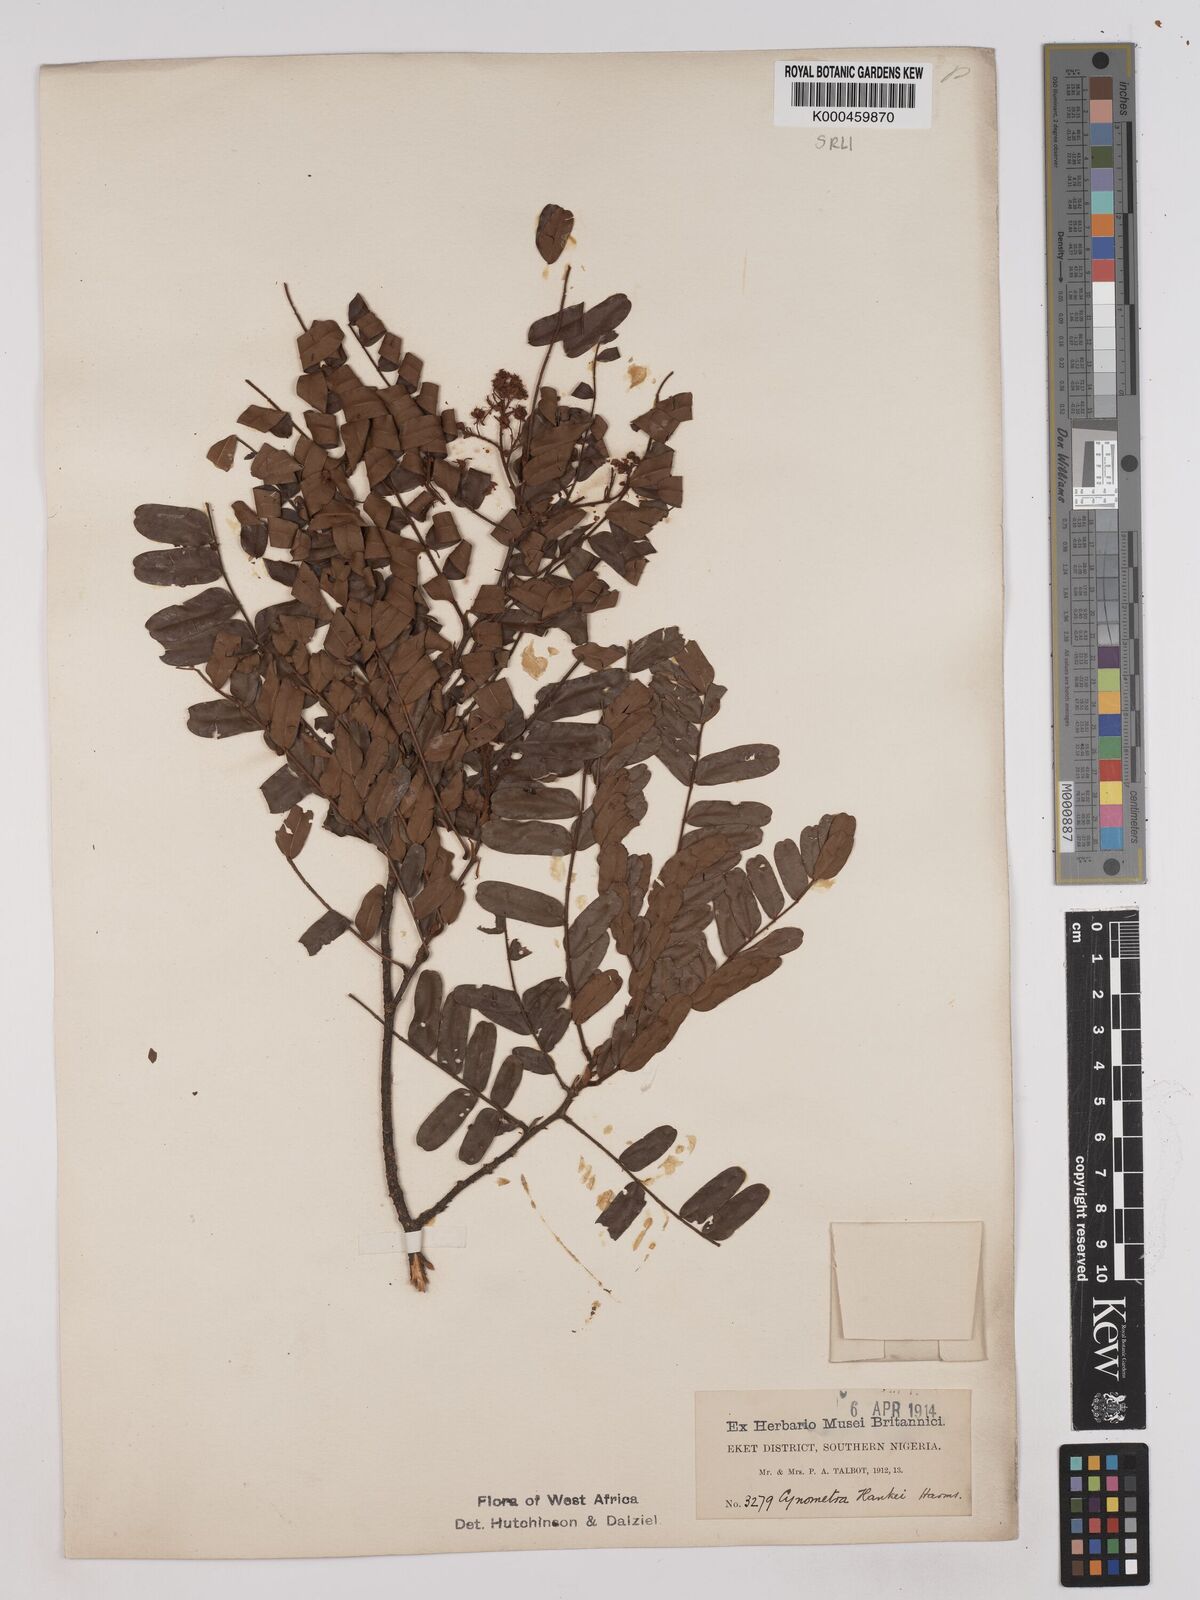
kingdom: Plantae
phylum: Tracheophyta
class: Magnoliopsida
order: Fabales
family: Fabaceae
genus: Cynometra
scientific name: Cynometra hankei
